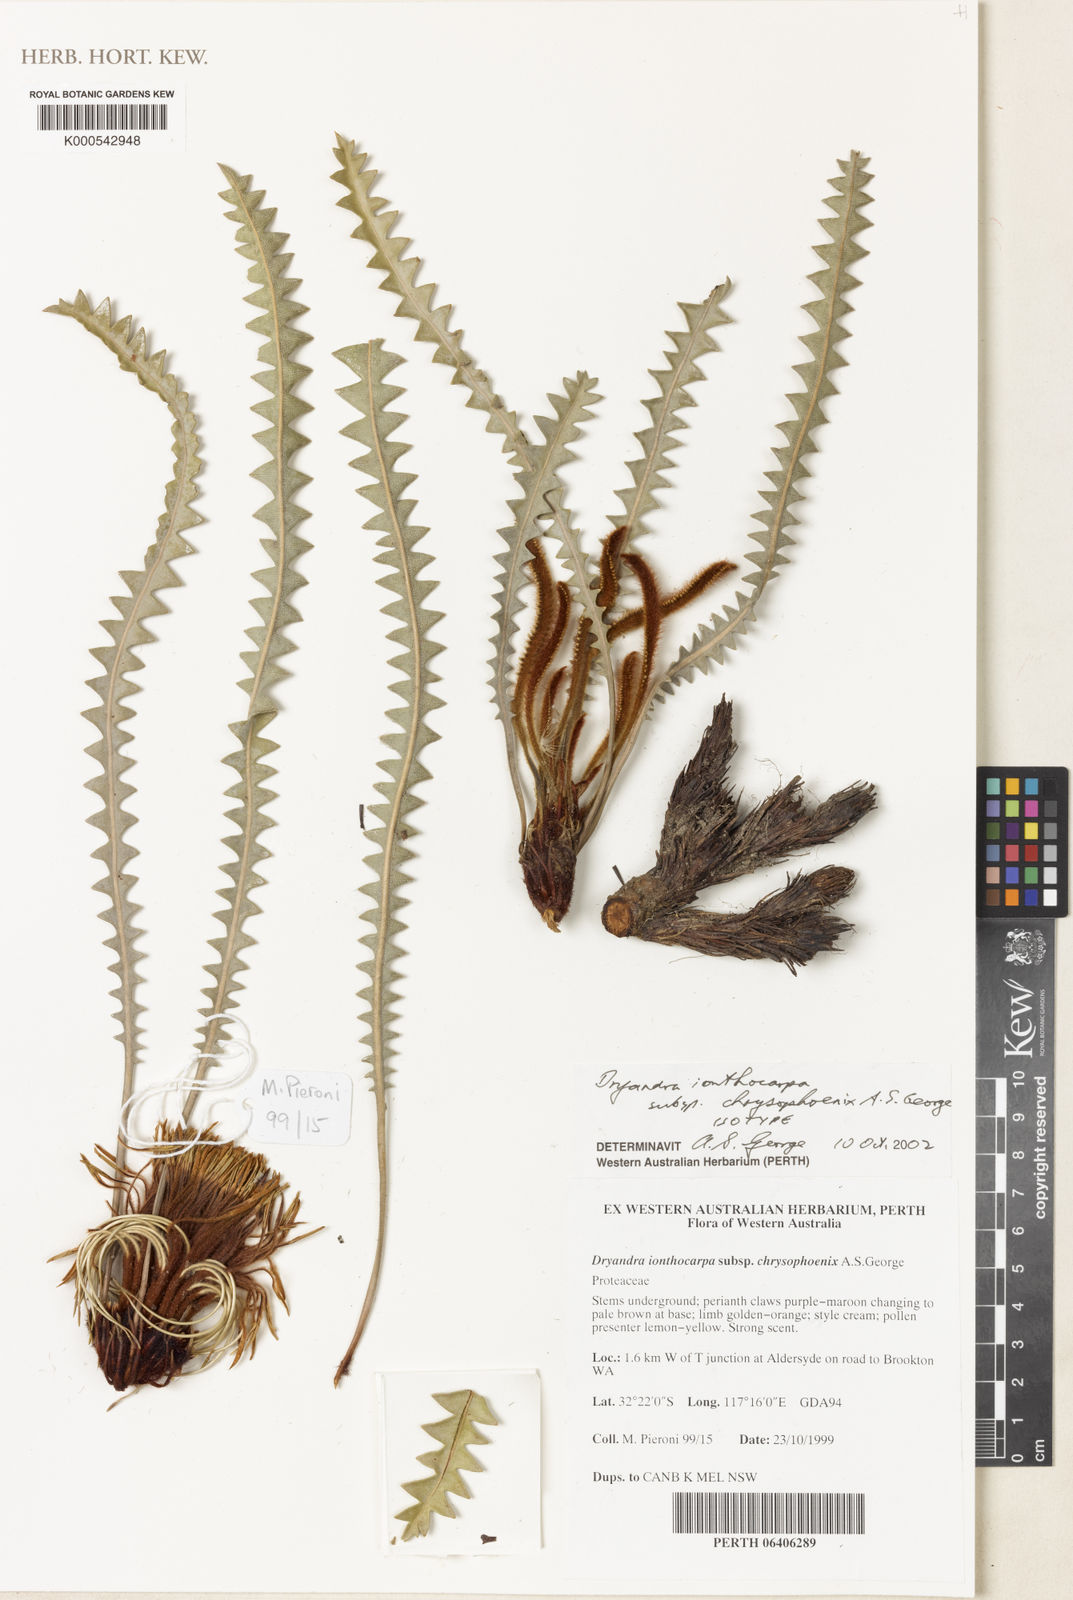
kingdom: Plantae
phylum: Tracheophyta
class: Magnoliopsida
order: Proteales
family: Proteaceae
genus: Banksia
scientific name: Banksia ionthocarpa
